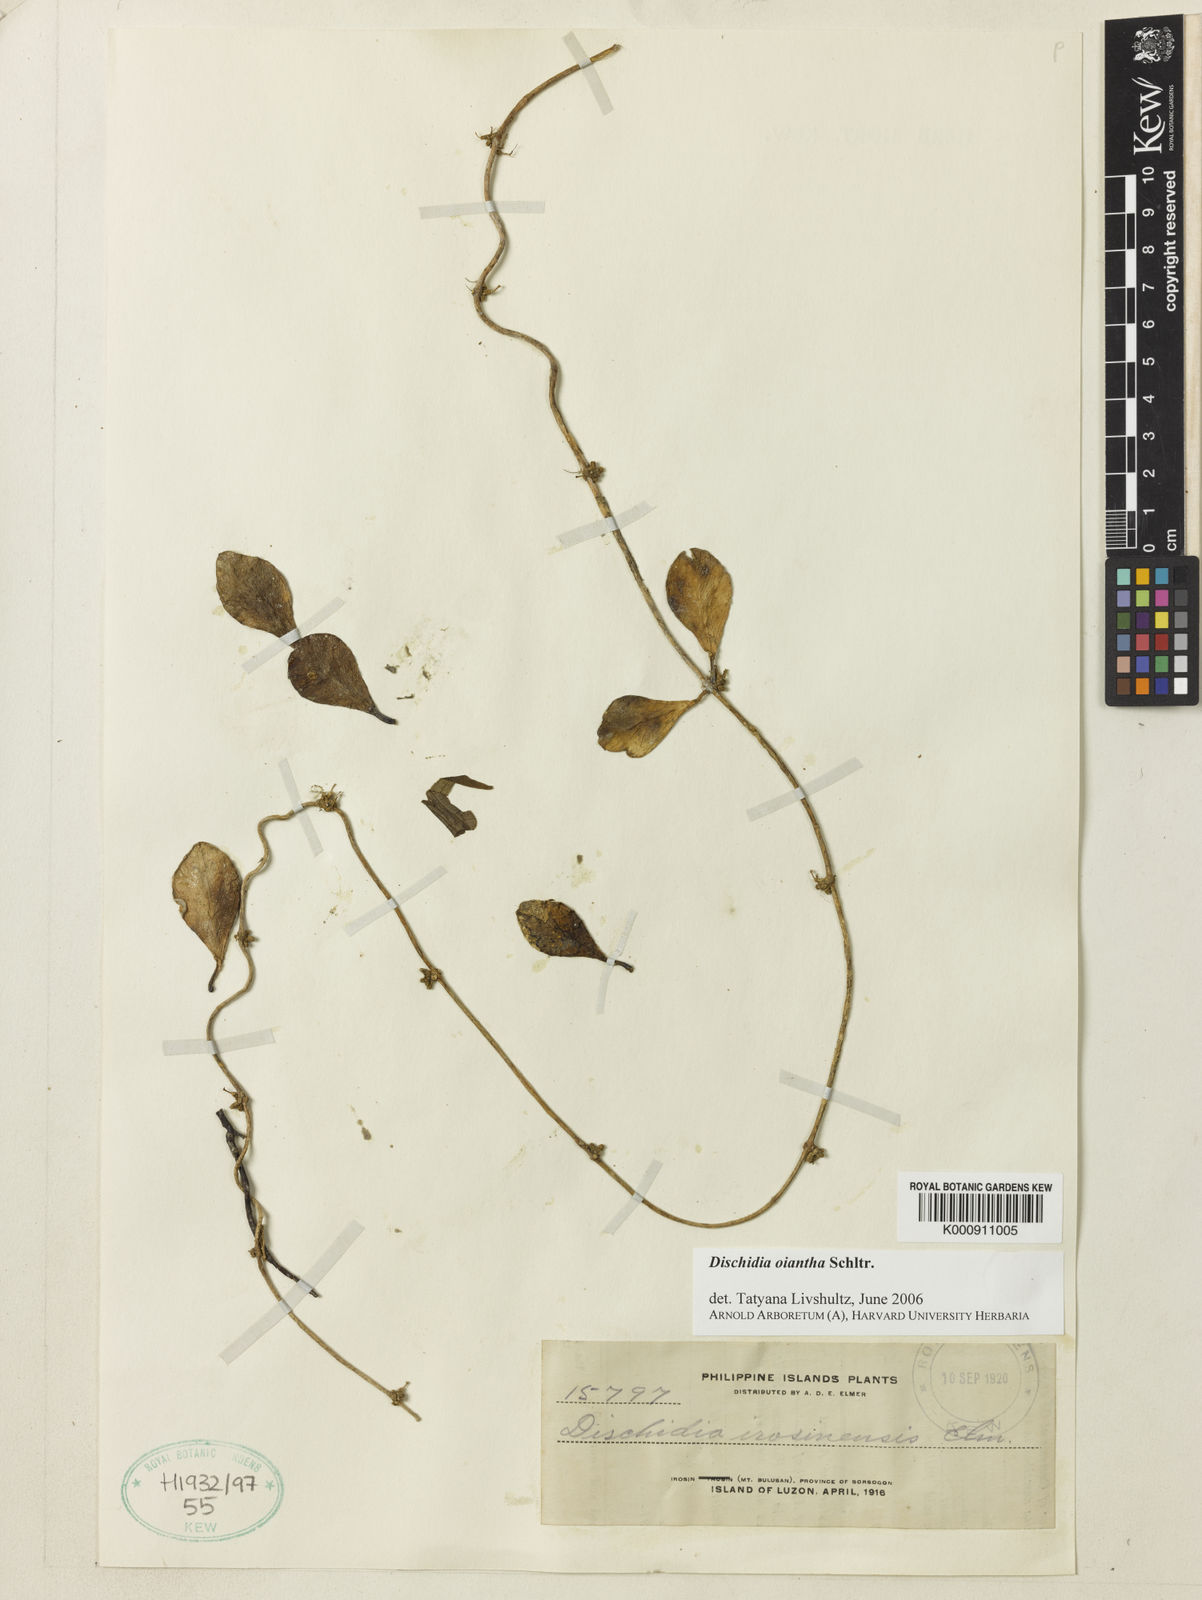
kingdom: Plantae
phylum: Tracheophyta
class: Magnoliopsida
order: Gentianales
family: Apocynaceae
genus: Dischidia
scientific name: Dischidia oiantha
